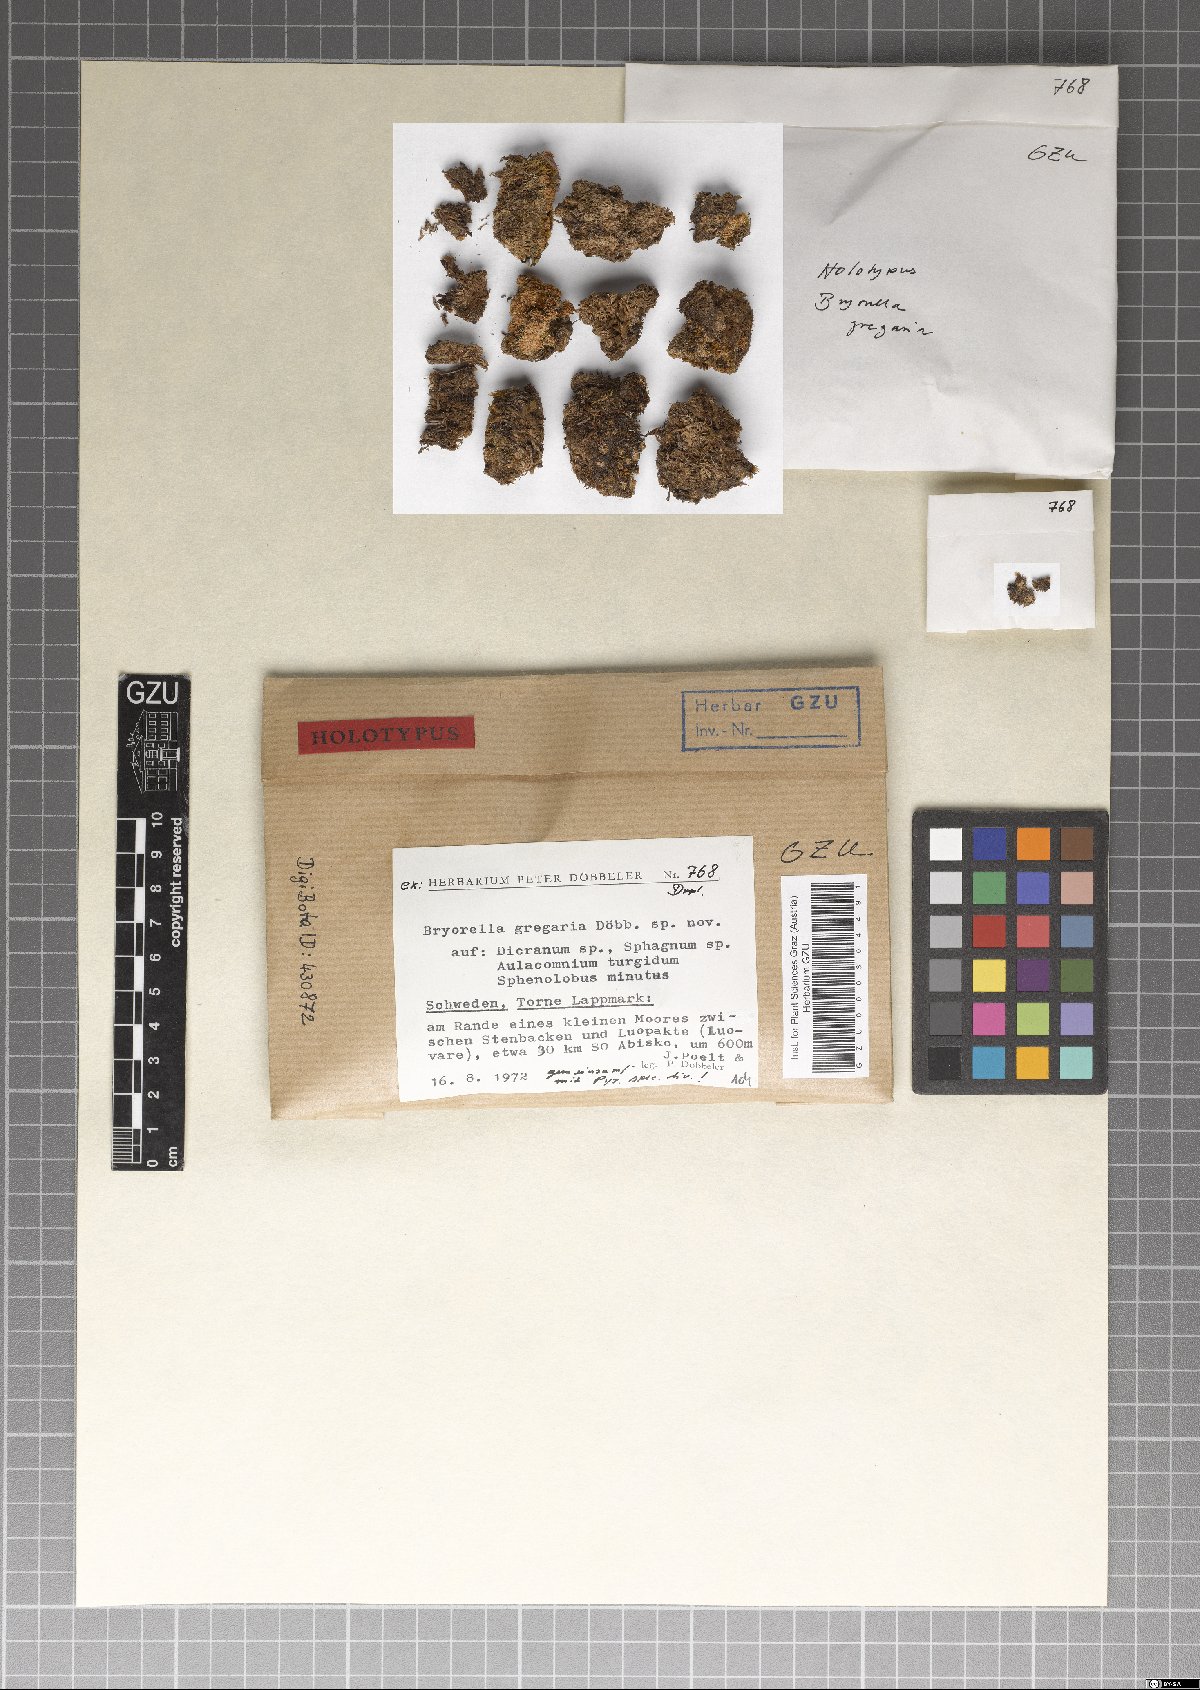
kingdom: Fungi
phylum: Ascomycota
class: Dothideomycetes
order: Dothideales
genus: Bryorella
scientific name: Bryorella gregaria
